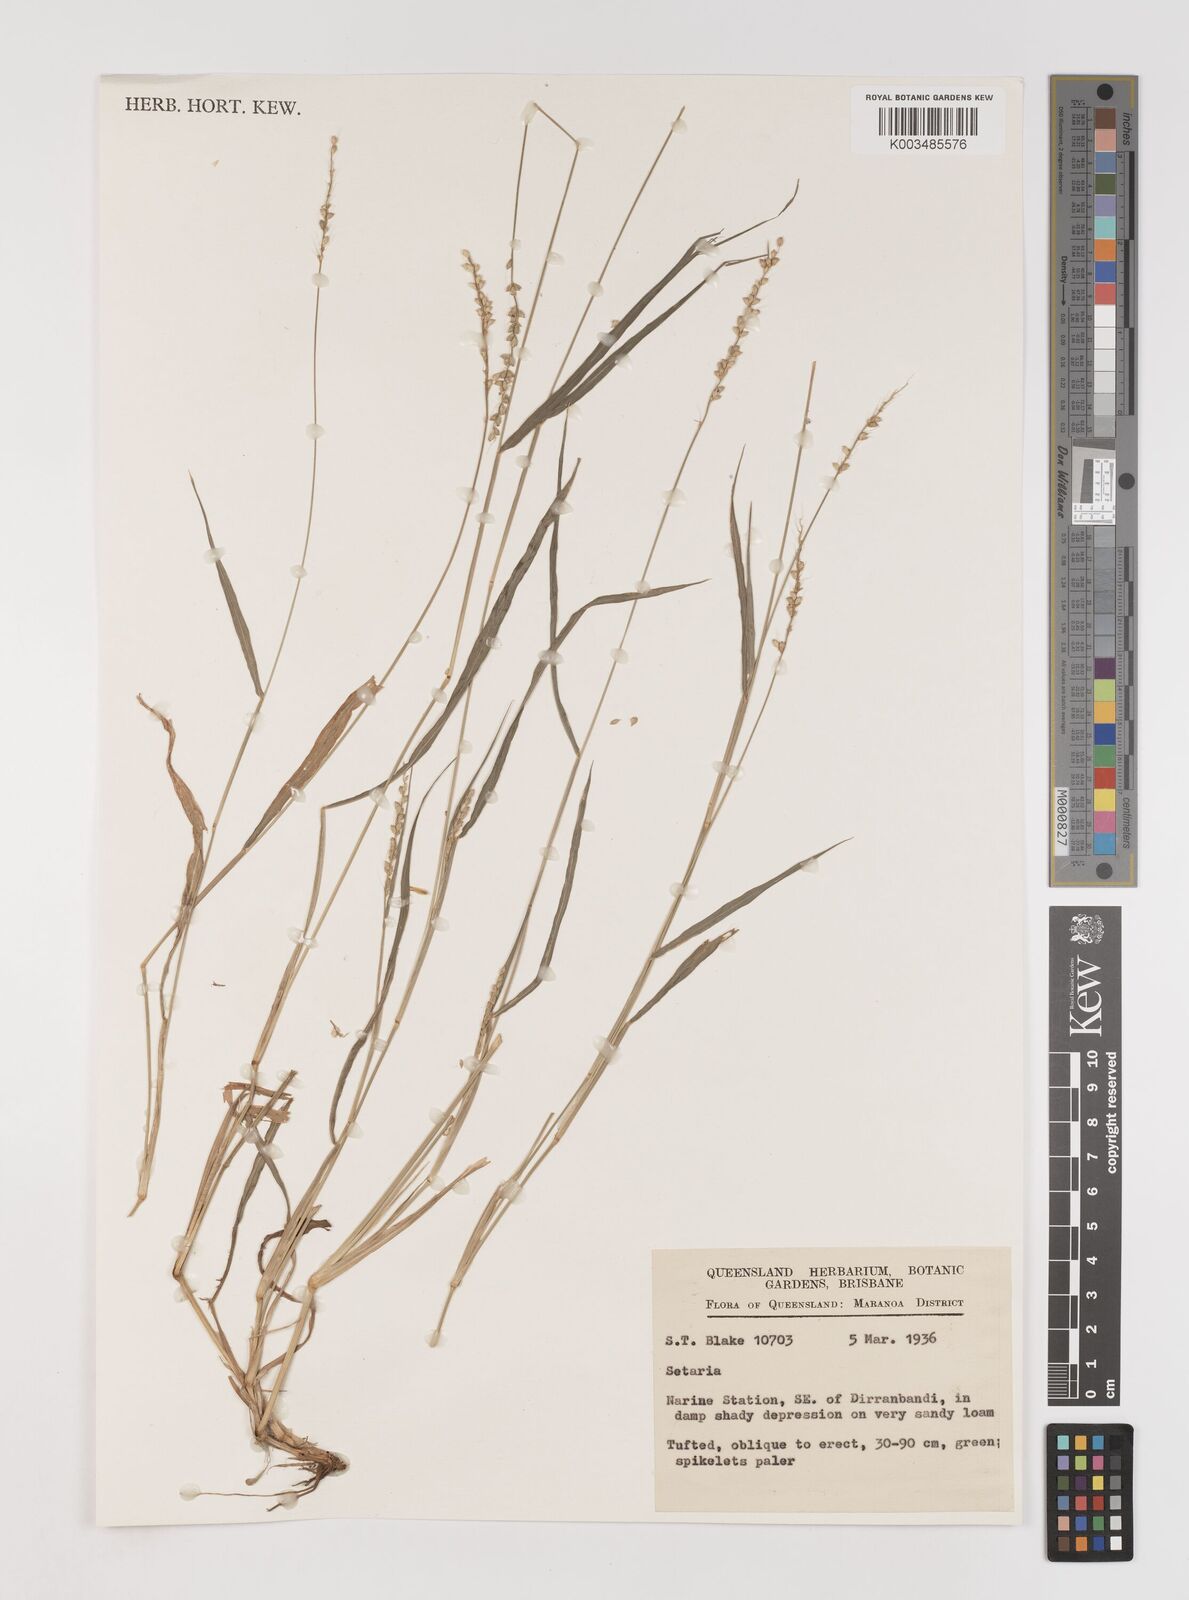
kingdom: Plantae
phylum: Tracheophyta
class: Liliopsida
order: Poales
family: Poaceae
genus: Setaria
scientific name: Setaria
